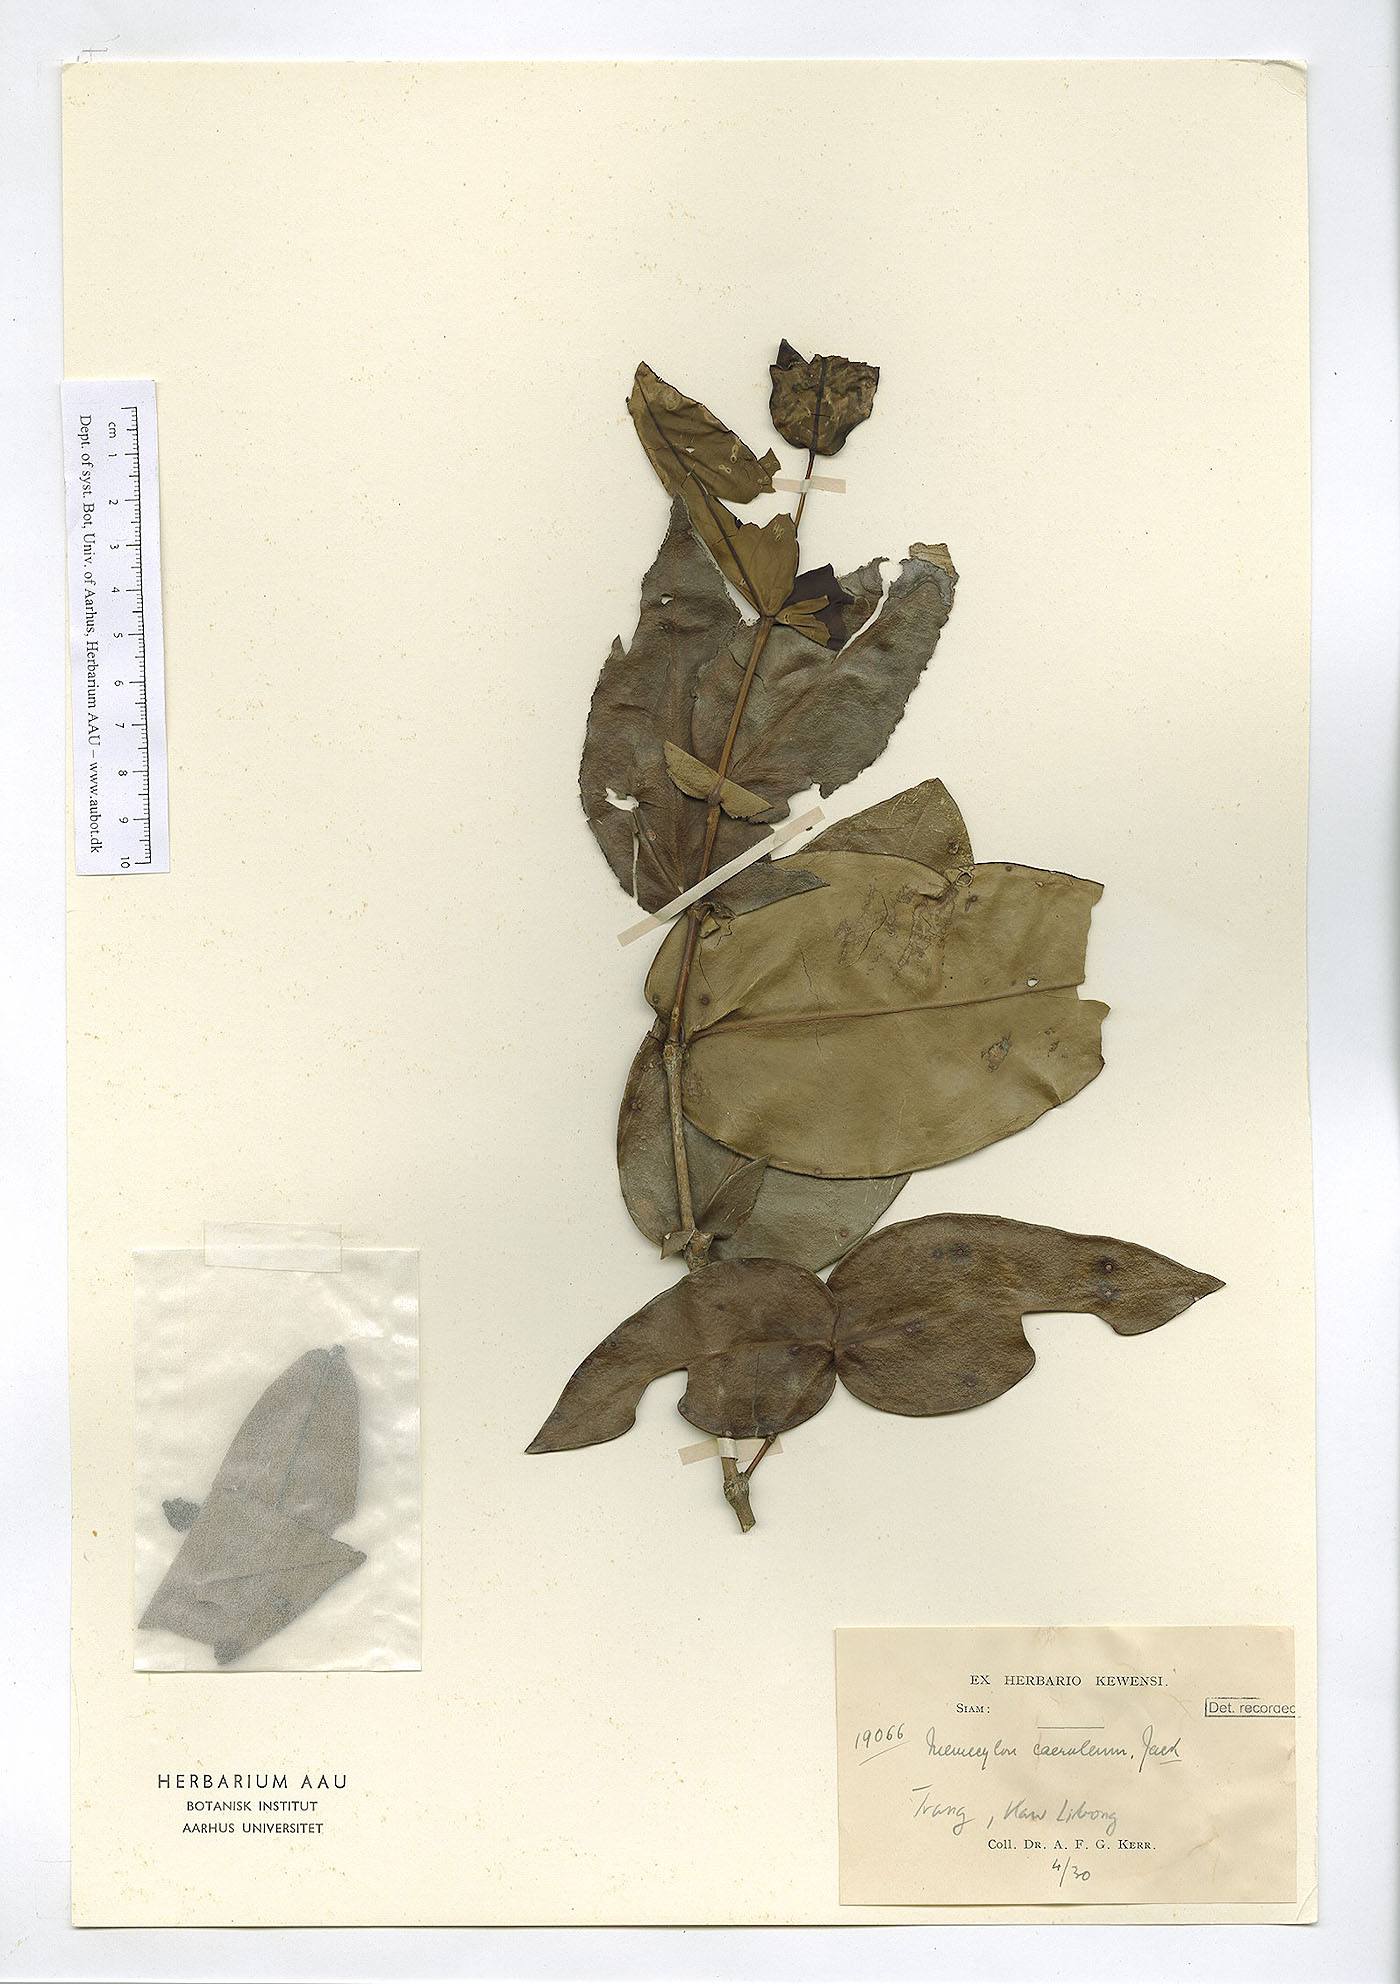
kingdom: Plantae
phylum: Tracheophyta
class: Magnoliopsida
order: Myrtales
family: Melastomataceae
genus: Memecylon
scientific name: Memecylon caeruleum
